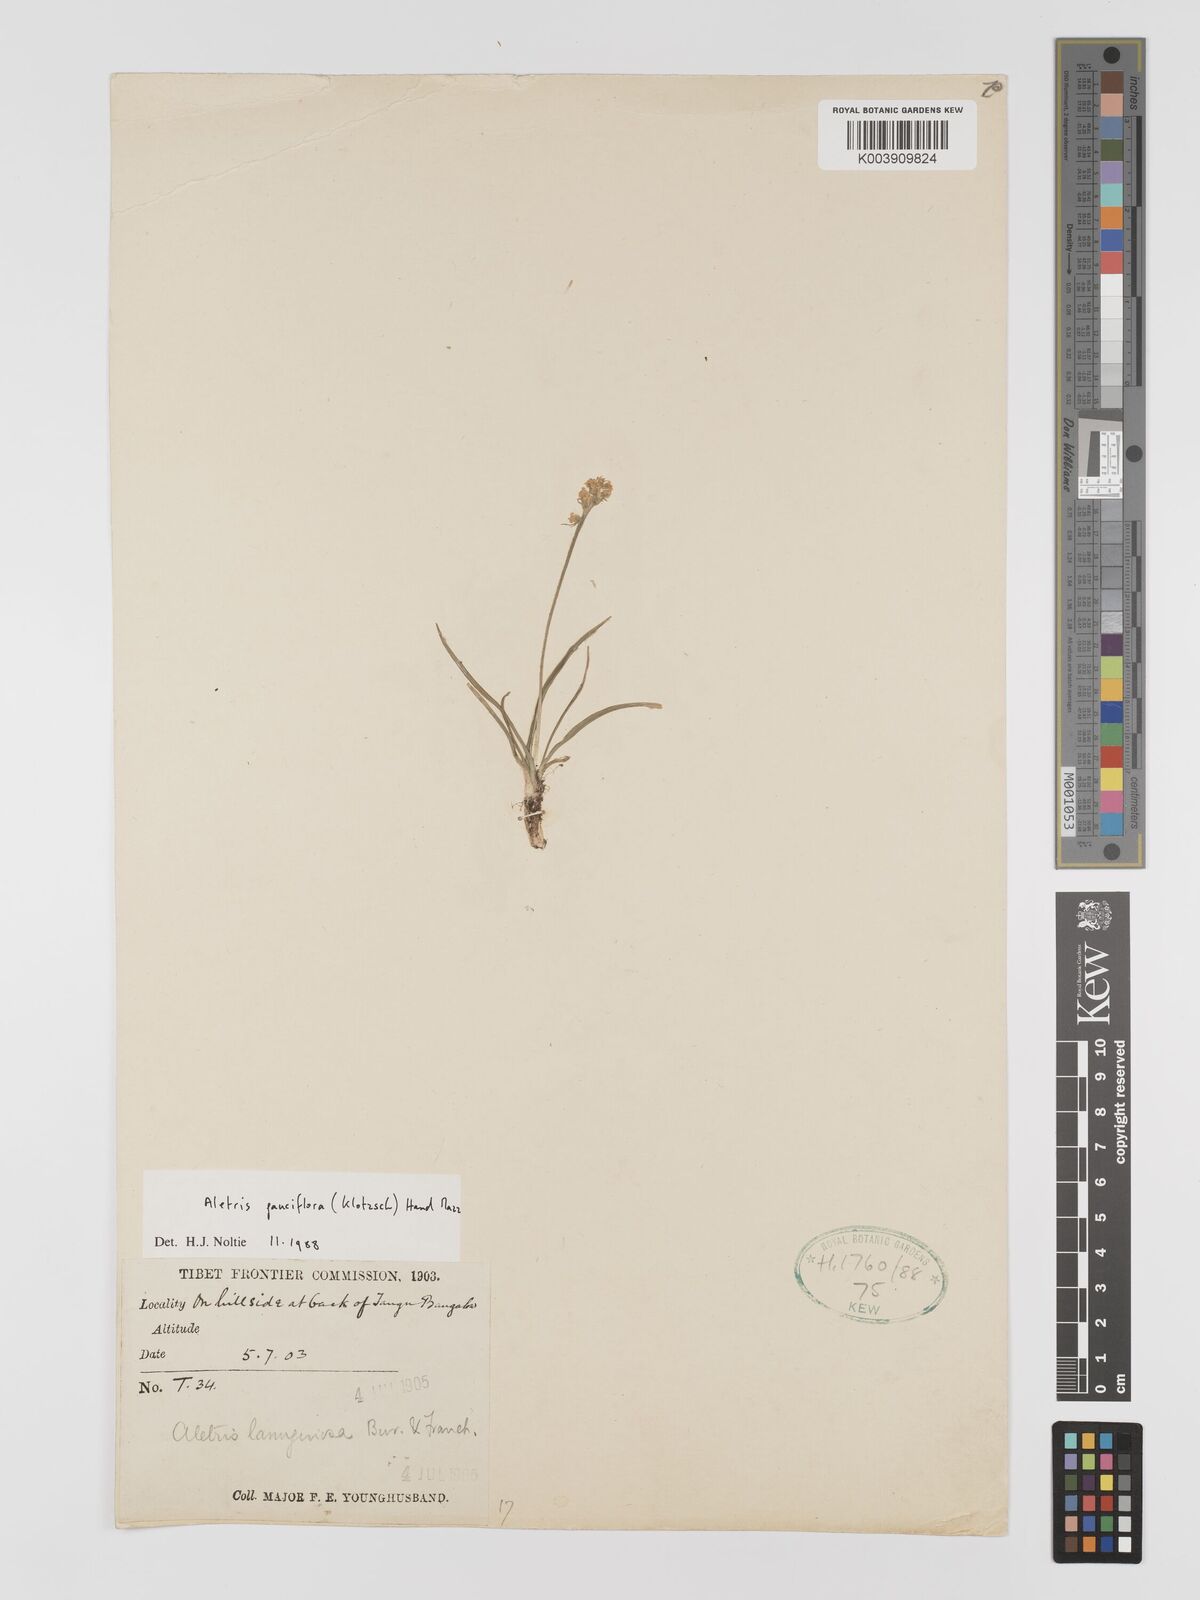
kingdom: Plantae
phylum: Tracheophyta
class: Liliopsida
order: Dioscoreales
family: Nartheciaceae
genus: Aletris
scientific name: Aletris pauciflora
